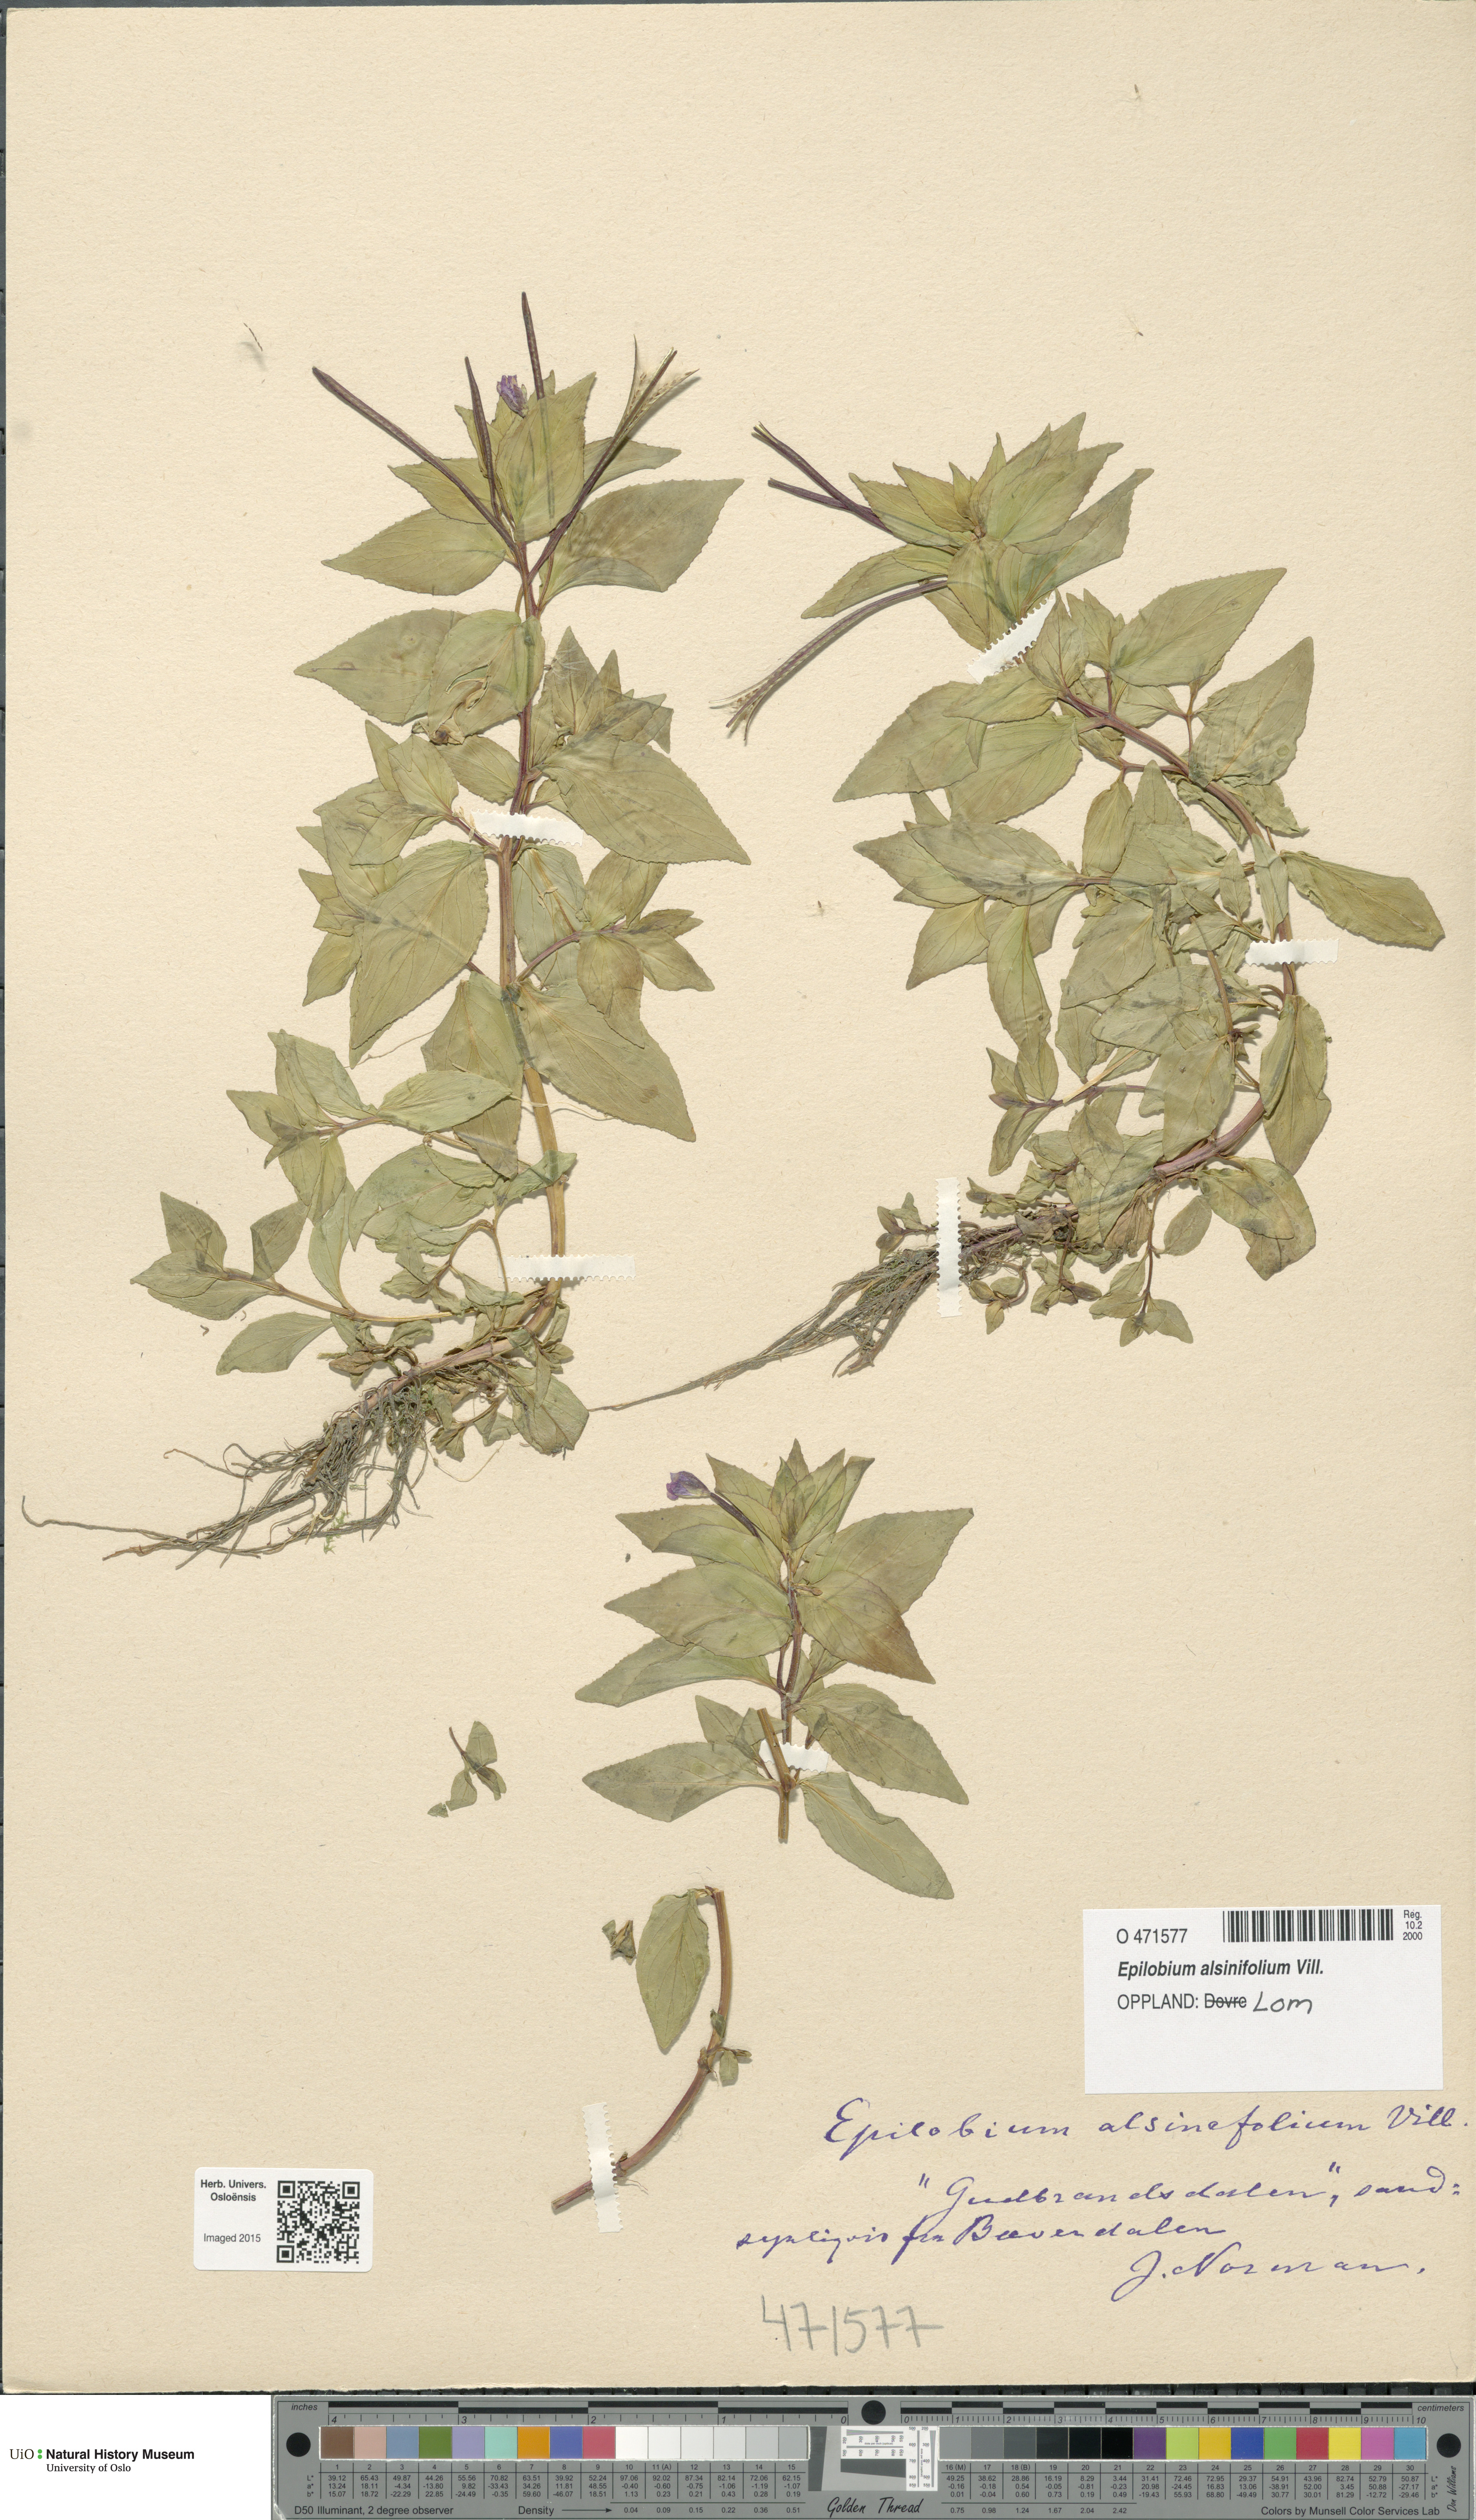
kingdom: Plantae
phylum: Tracheophyta
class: Magnoliopsida
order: Myrtales
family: Onagraceae
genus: Epilobium
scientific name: Epilobium alsinifolium
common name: Chickweed willowherb
